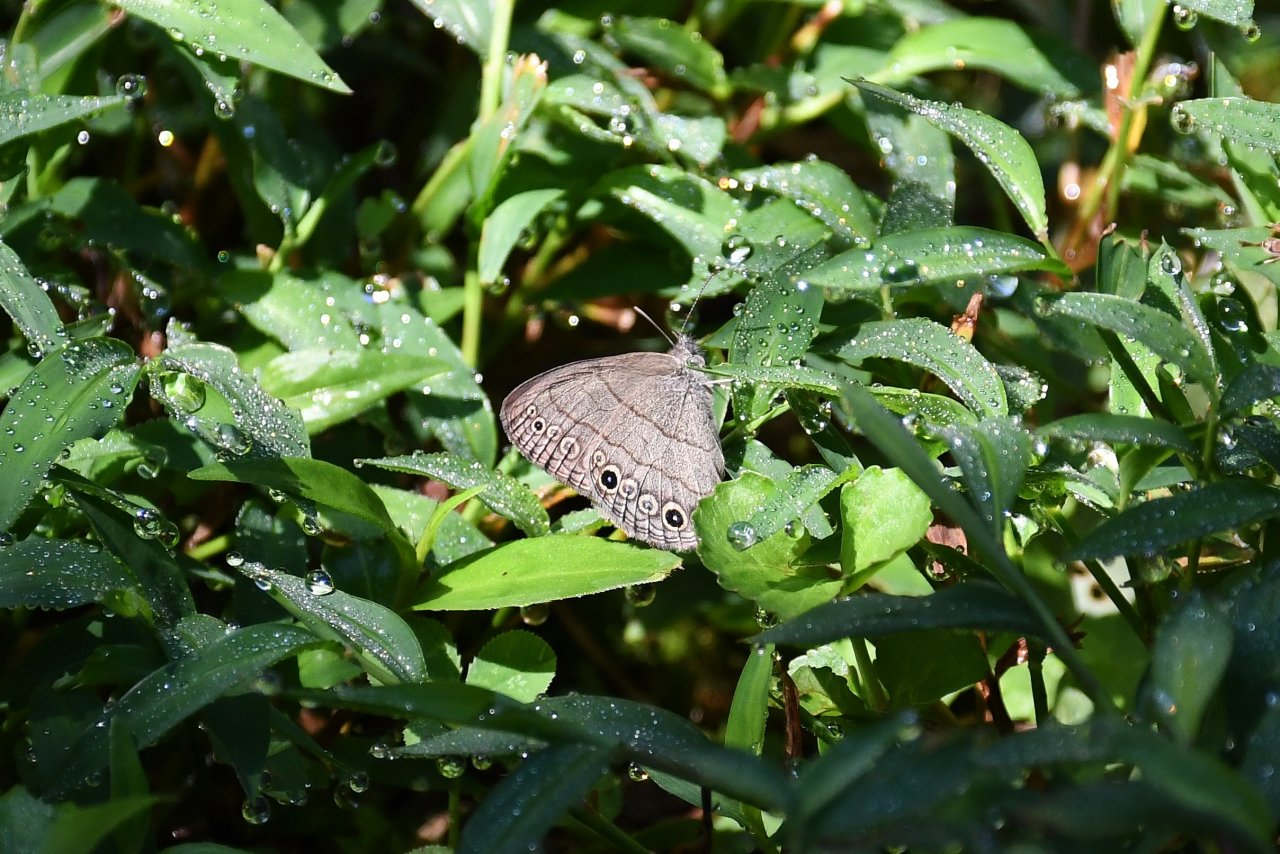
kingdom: Animalia
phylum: Arthropoda
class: Insecta
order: Lepidoptera
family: Nymphalidae
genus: Hermeuptychia
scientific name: Hermeuptychia hermes
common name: Carolina Satyr
